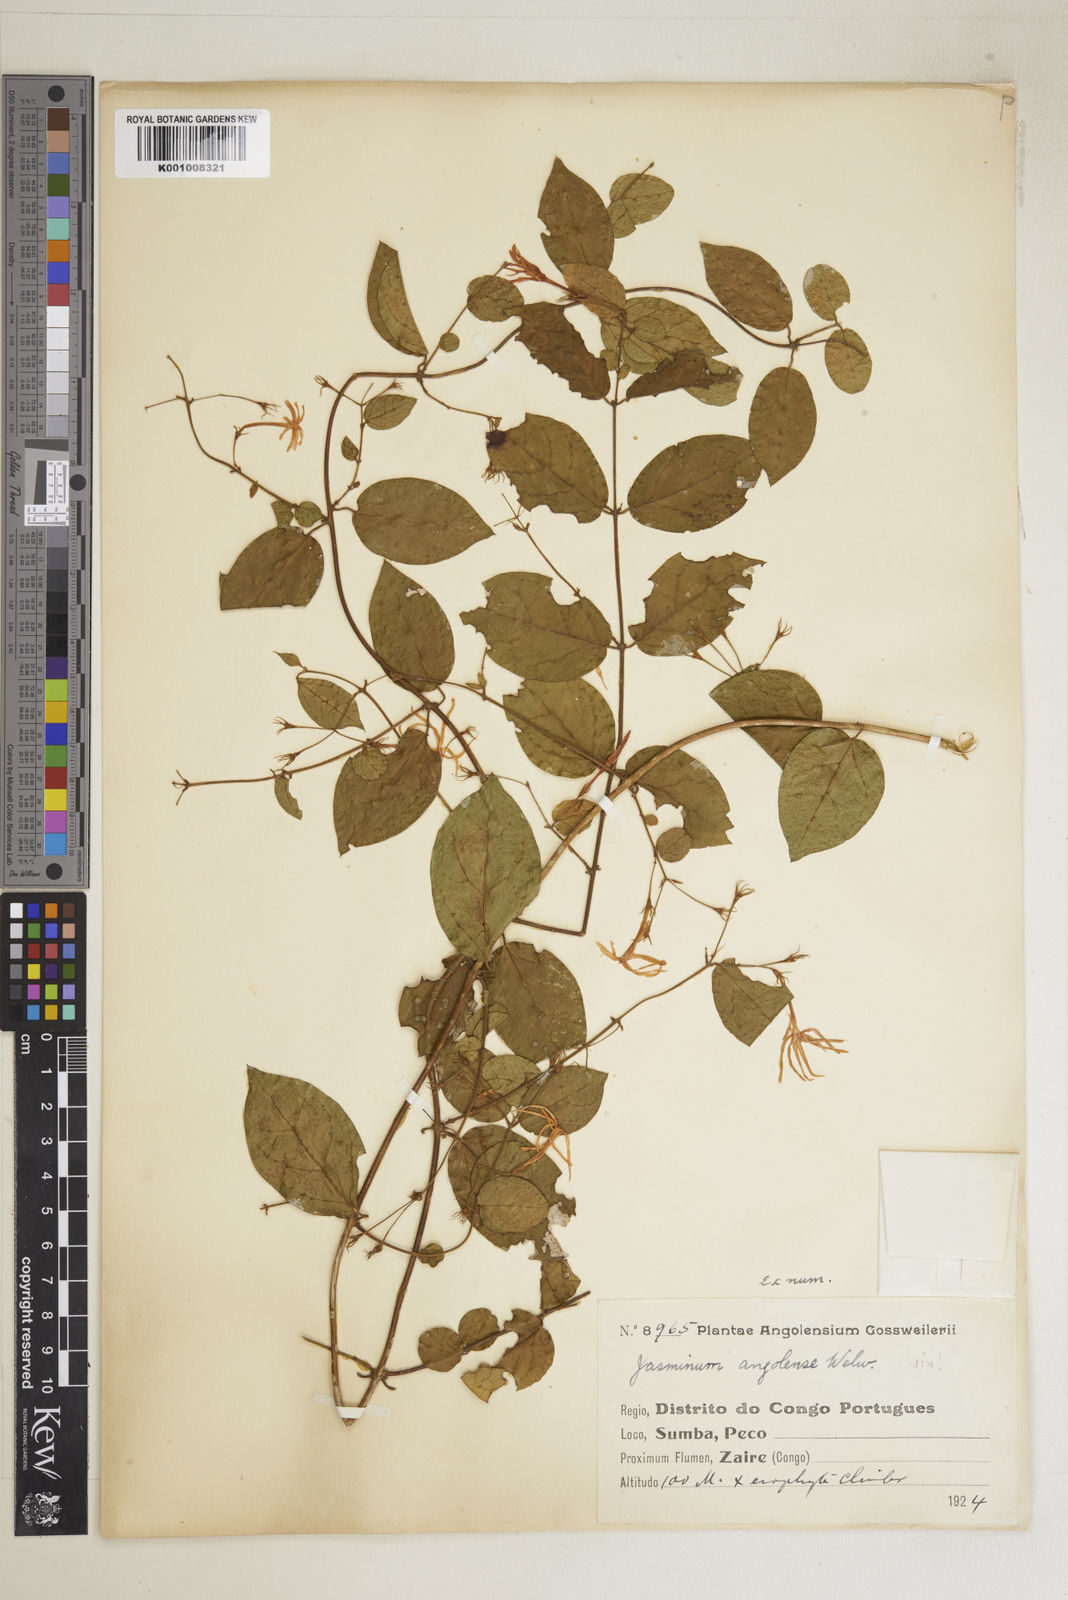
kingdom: Plantae
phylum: Tracheophyta
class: Magnoliopsida
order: Lamiales
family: Oleaceae
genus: Jasminum
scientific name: Jasminum pauciflorum
